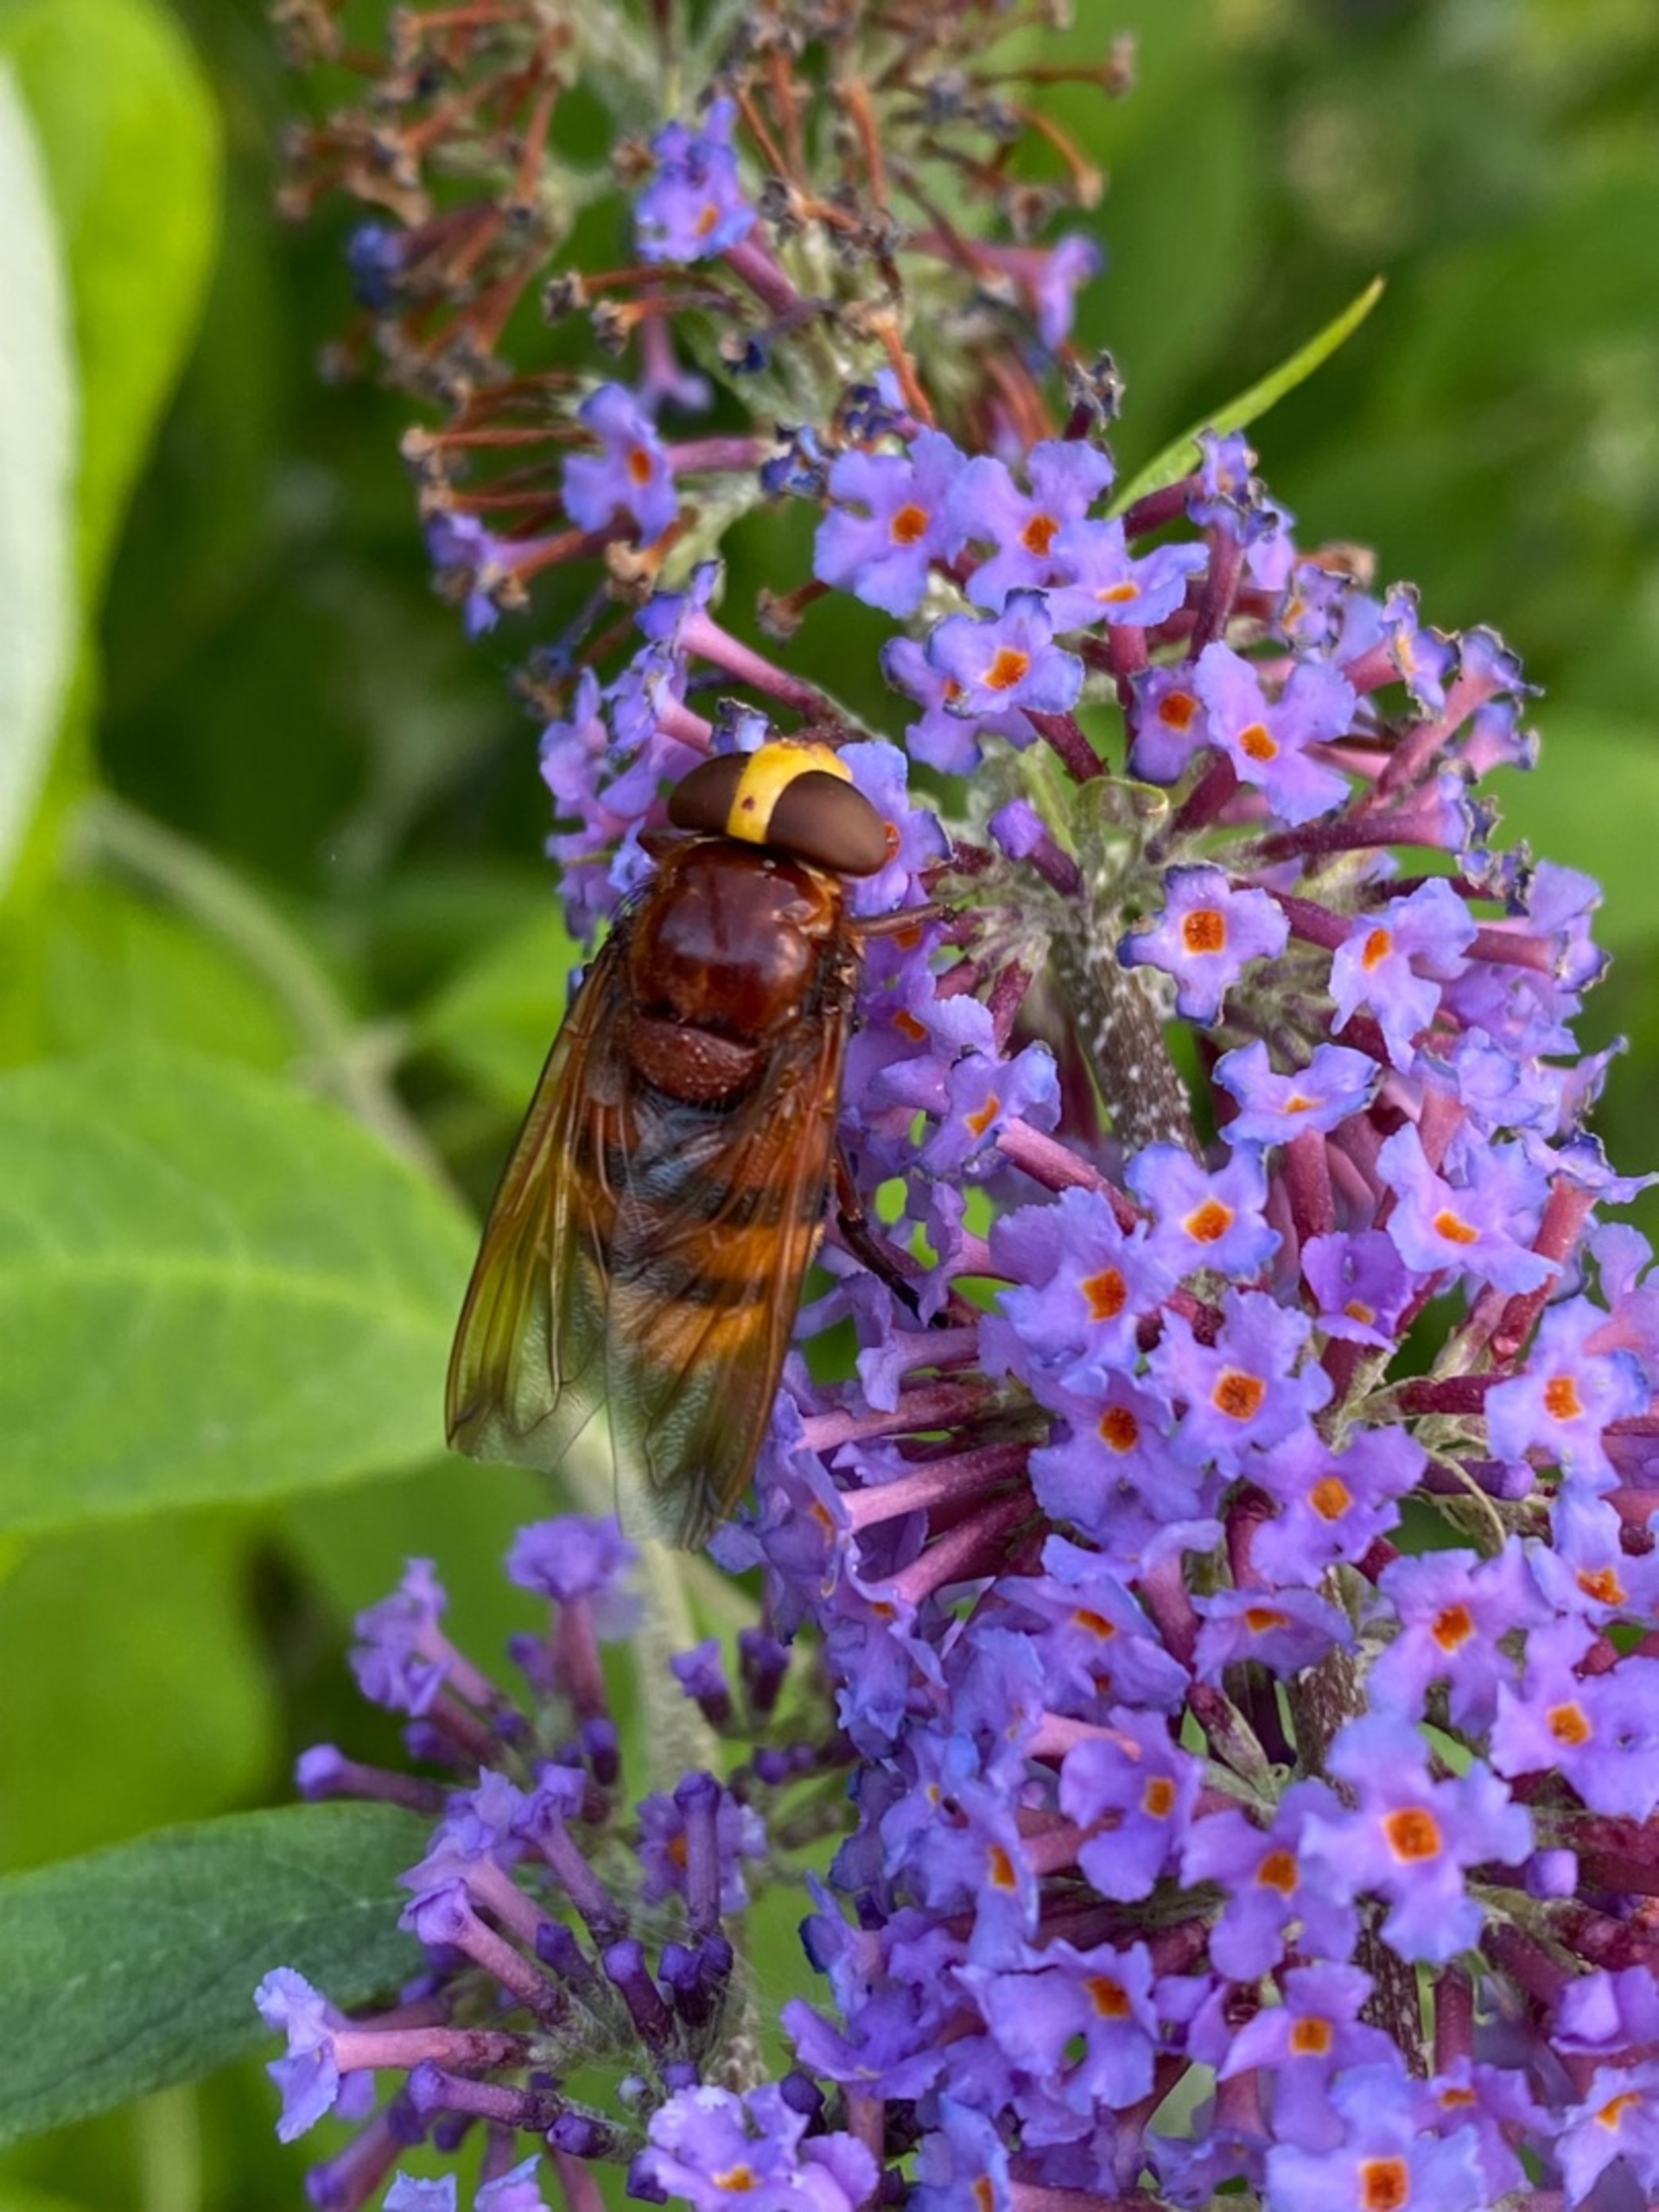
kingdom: Animalia
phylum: Arthropoda
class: Insecta
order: Diptera
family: Syrphidae
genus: Volucella
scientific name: Volucella zonaria
